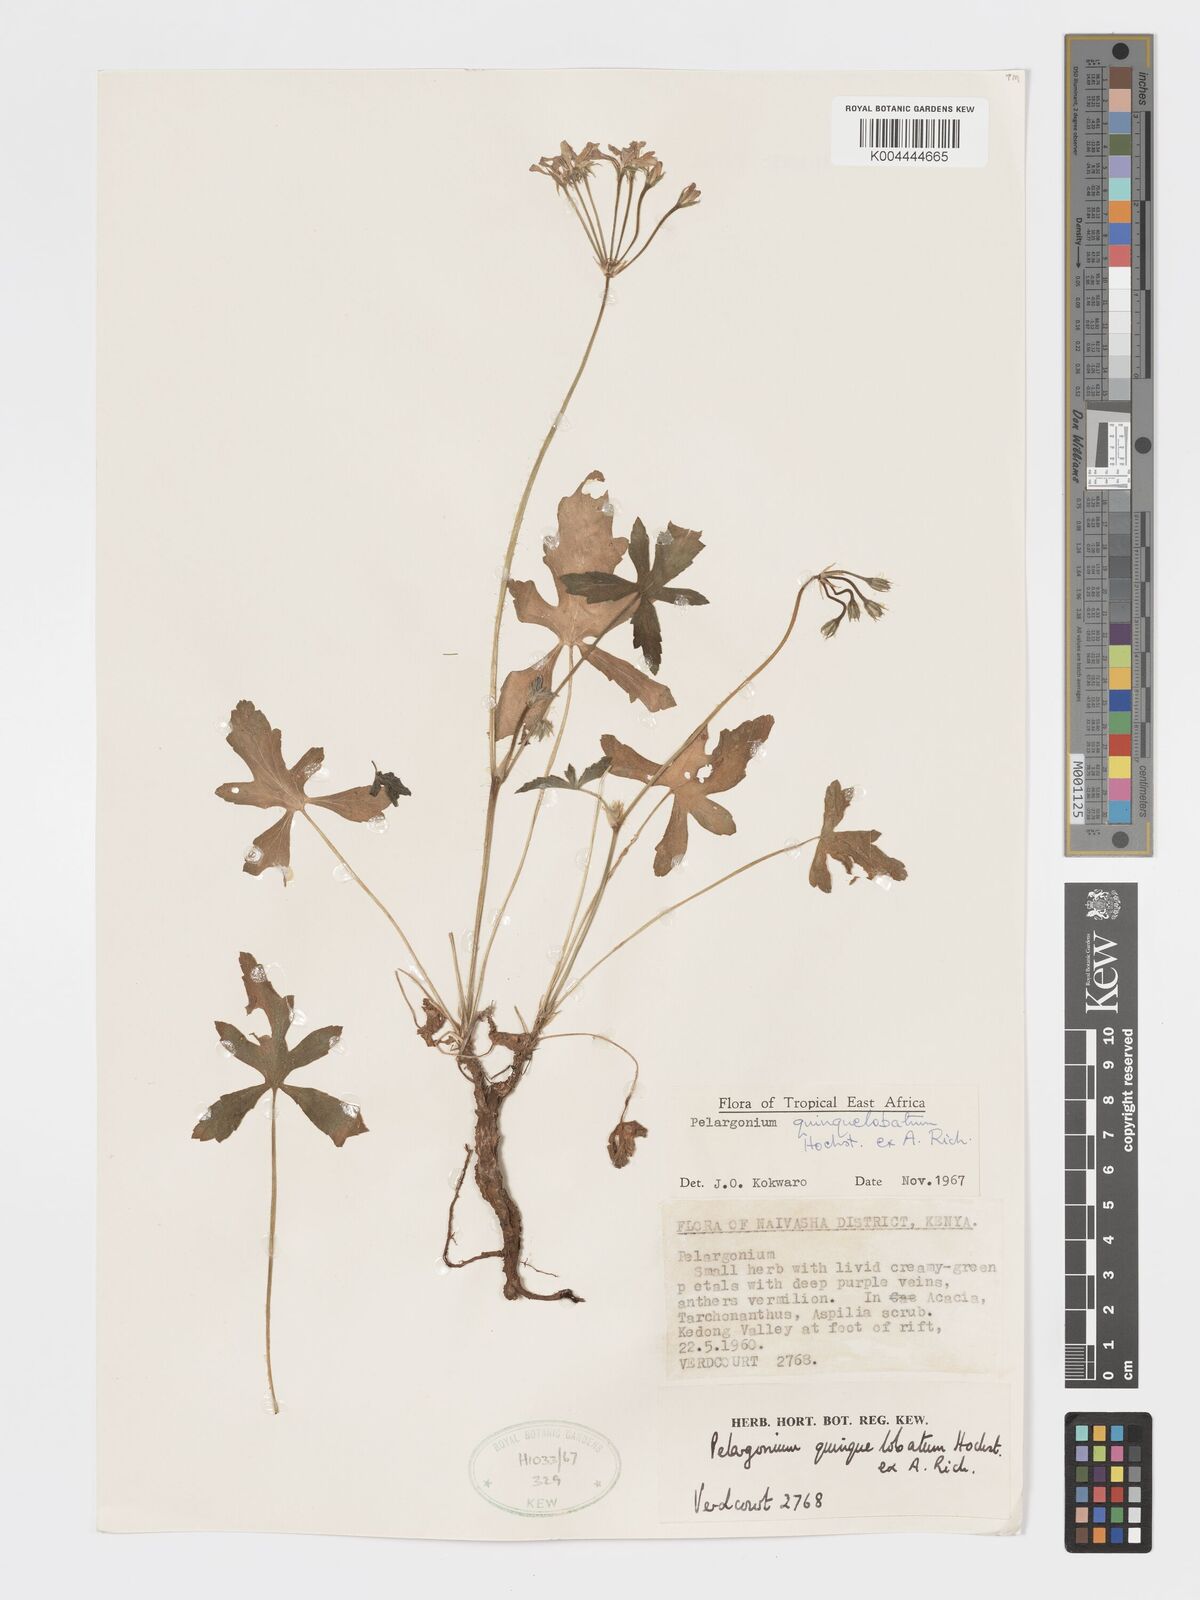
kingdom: Plantae
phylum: Tracheophyta
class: Magnoliopsida
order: Geraniales
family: Geraniaceae
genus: Pelargonium
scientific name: Pelargonium quinquelobatum
